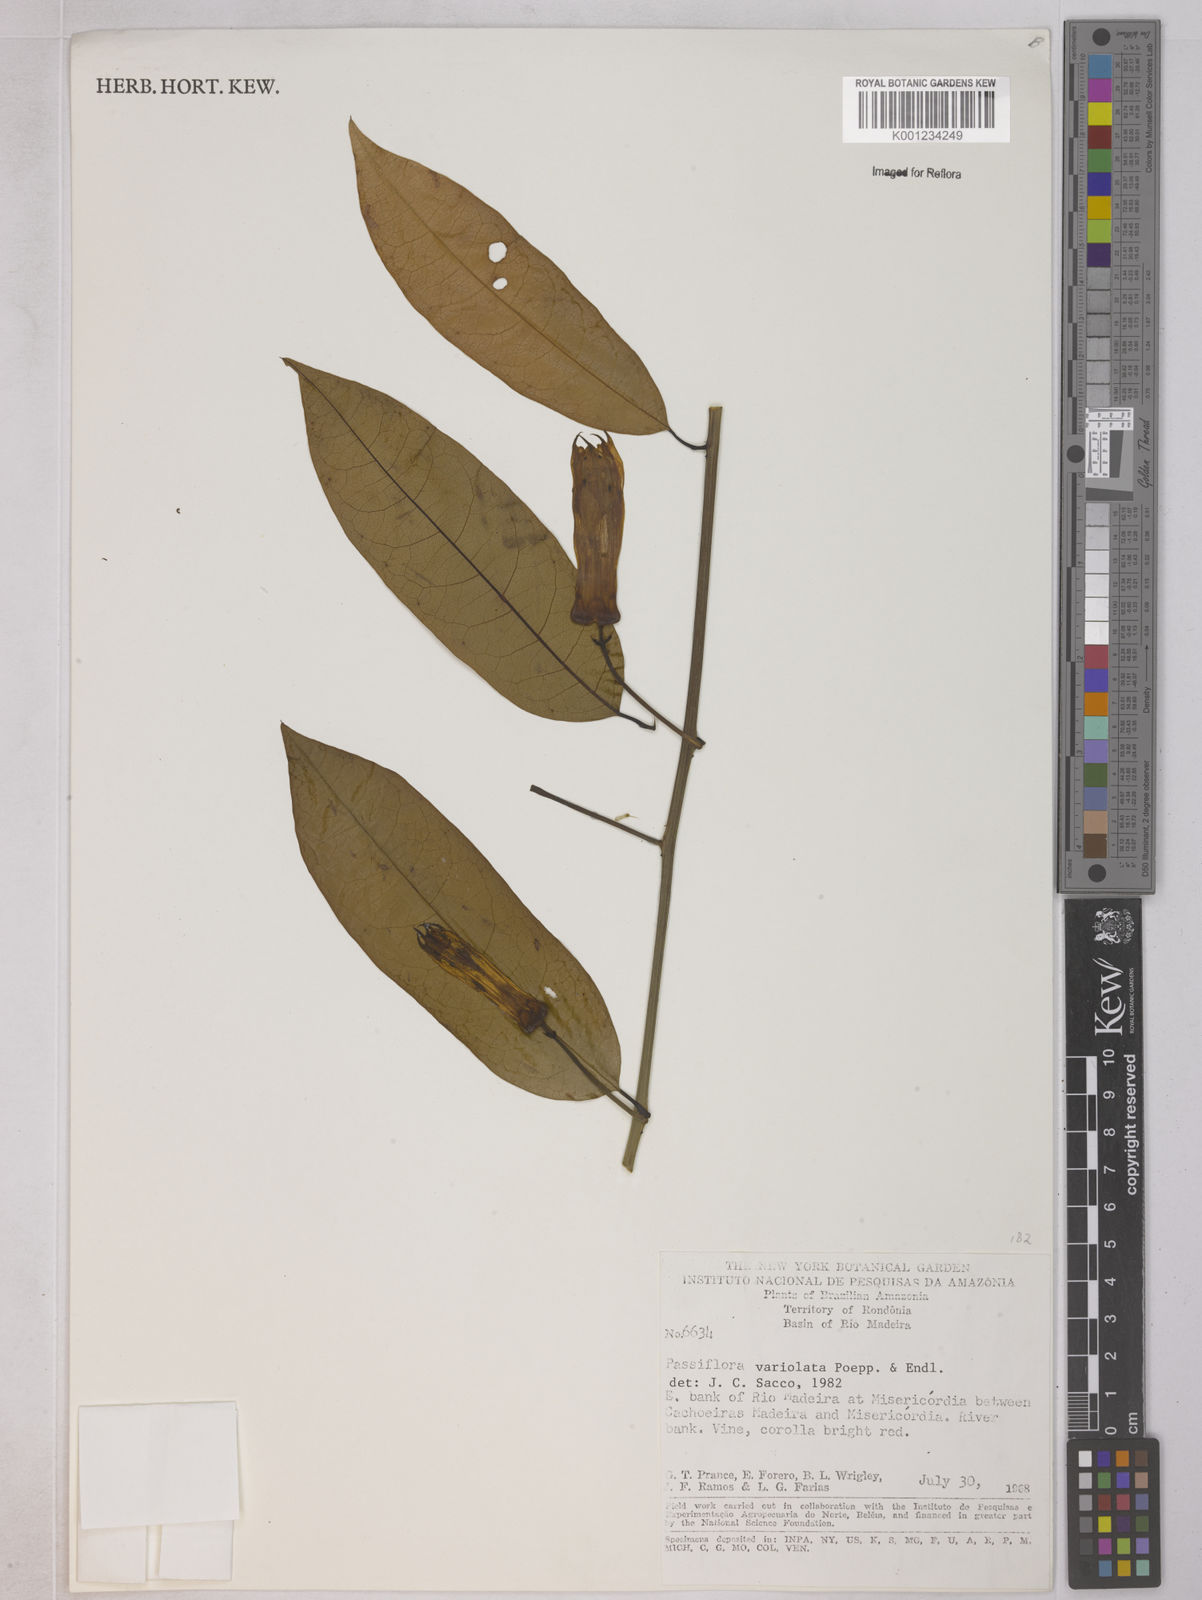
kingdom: Plantae
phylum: Tracheophyta
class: Magnoliopsida
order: Malpighiales
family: Passifloraceae
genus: Passiflora
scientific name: Passiflora variolata
